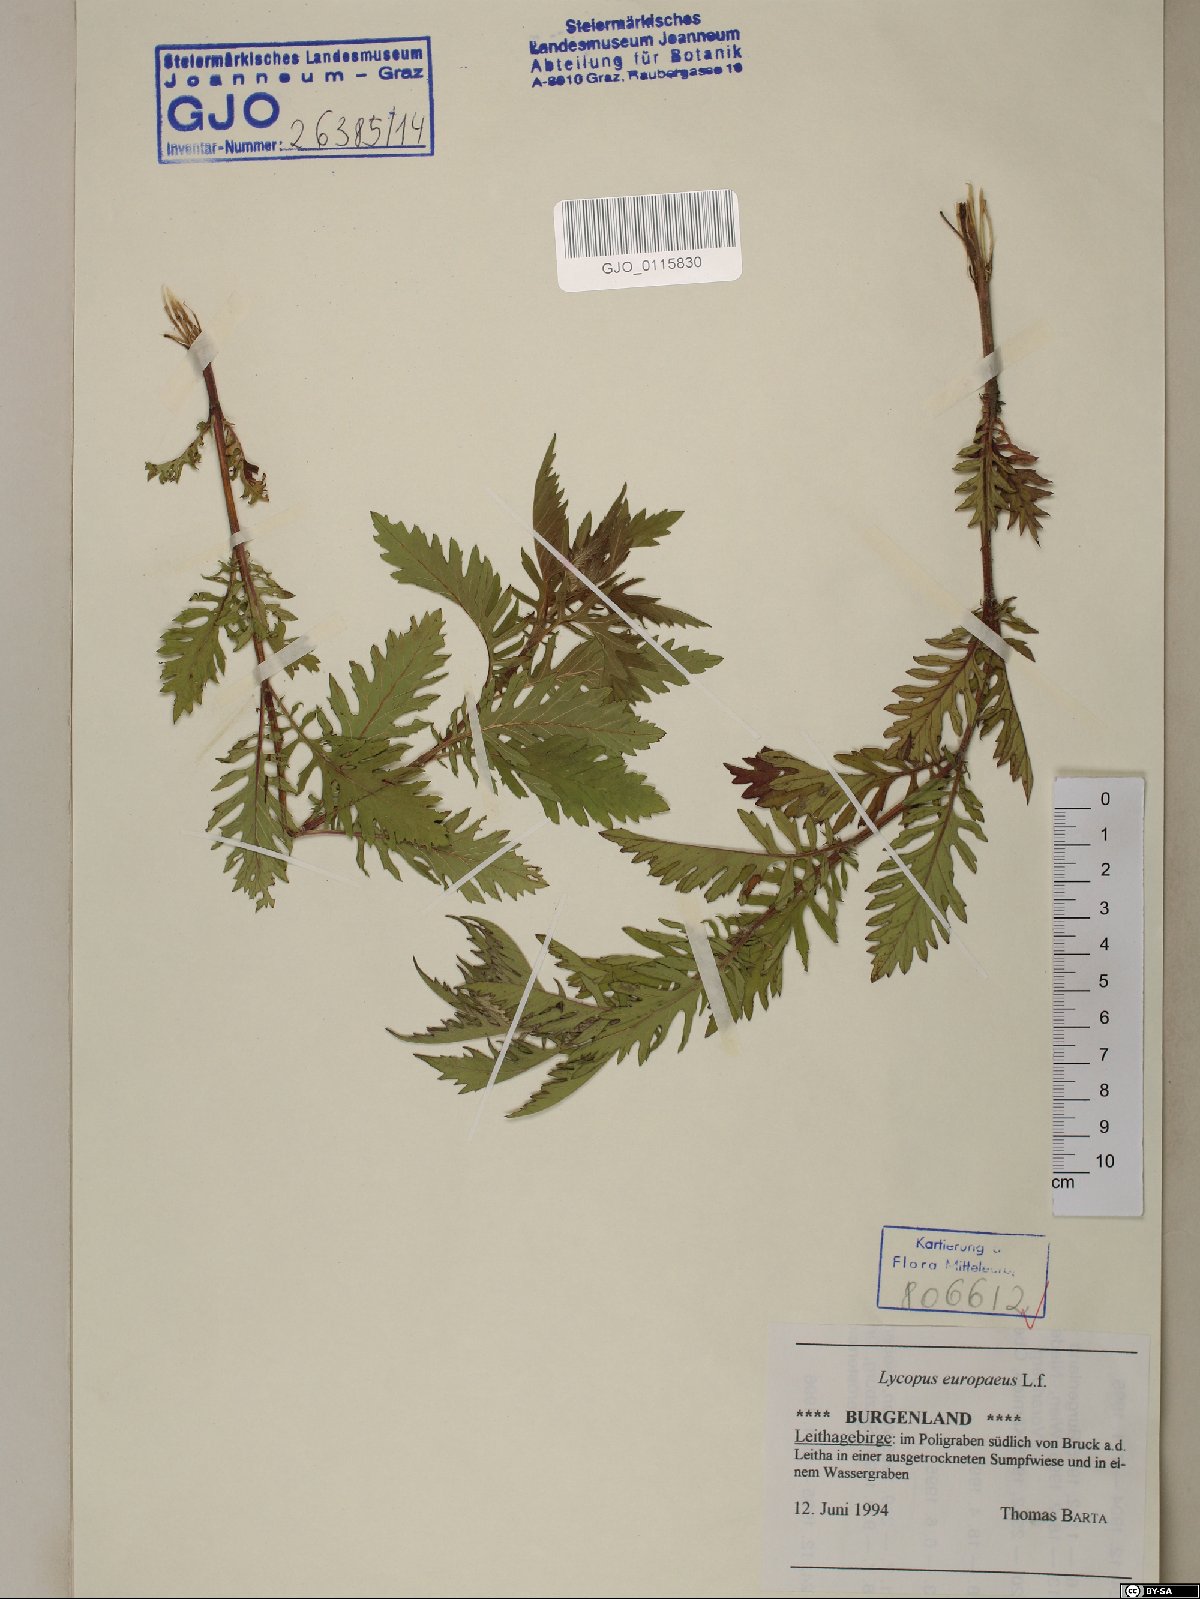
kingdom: Plantae
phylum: Tracheophyta
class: Magnoliopsida
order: Lamiales
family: Lamiaceae
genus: Lycopus
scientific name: Lycopus europaeus
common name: European bugleweed
